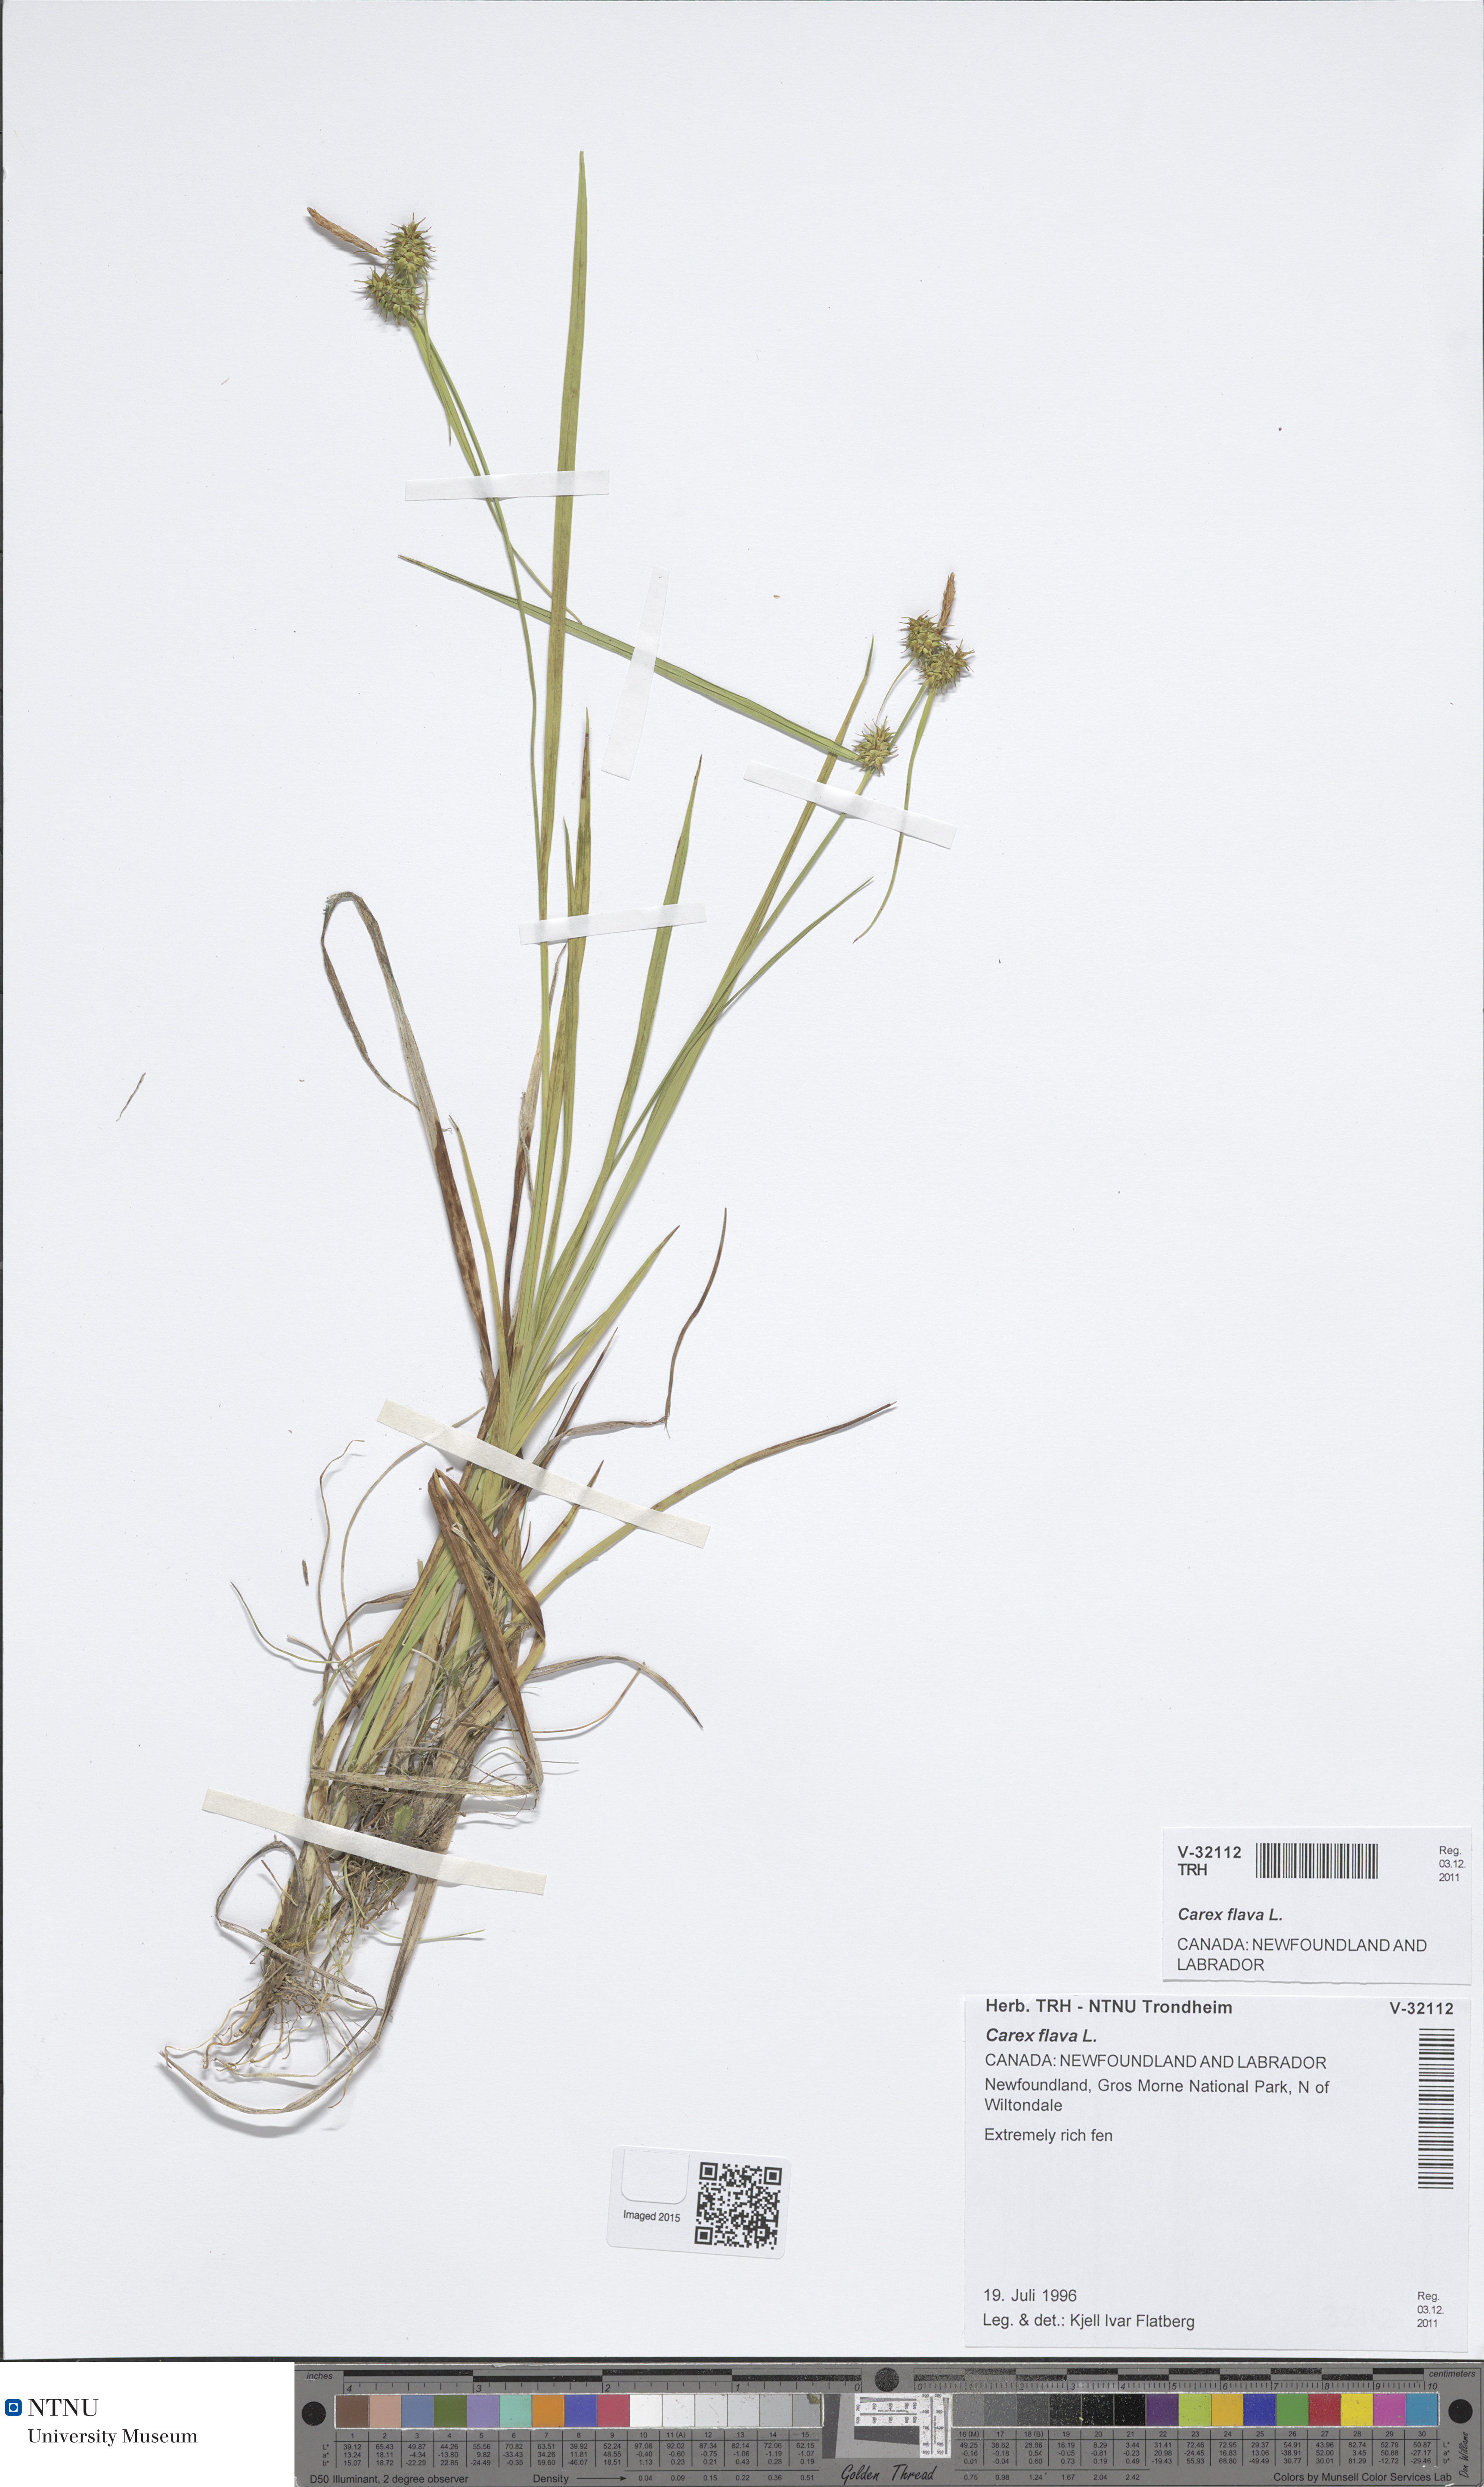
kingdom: Plantae
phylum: Tracheophyta
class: Liliopsida
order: Poales
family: Cyperaceae
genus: Carex
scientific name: Carex flava
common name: Large yellow-sedge
